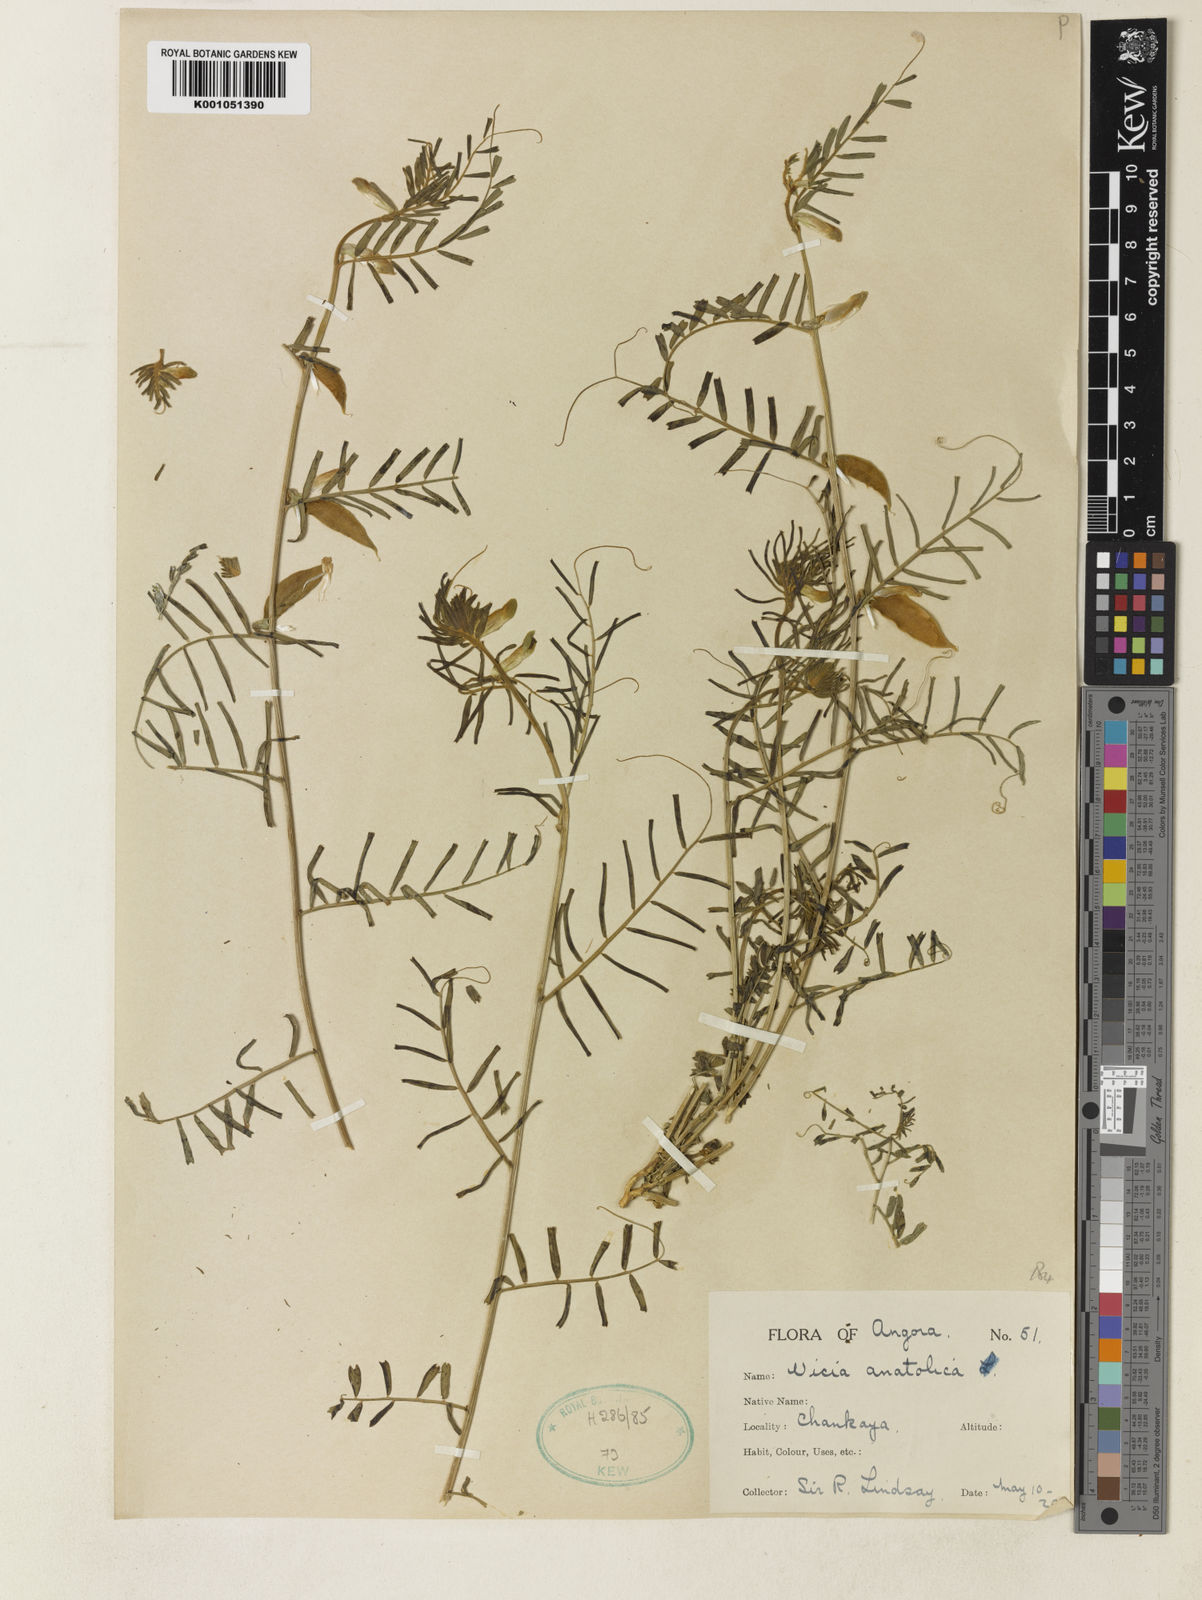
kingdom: Plantae
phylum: Tracheophyta
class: Magnoliopsida
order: Fabales
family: Fabaceae
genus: Vicia
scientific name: Vicia anatolica
